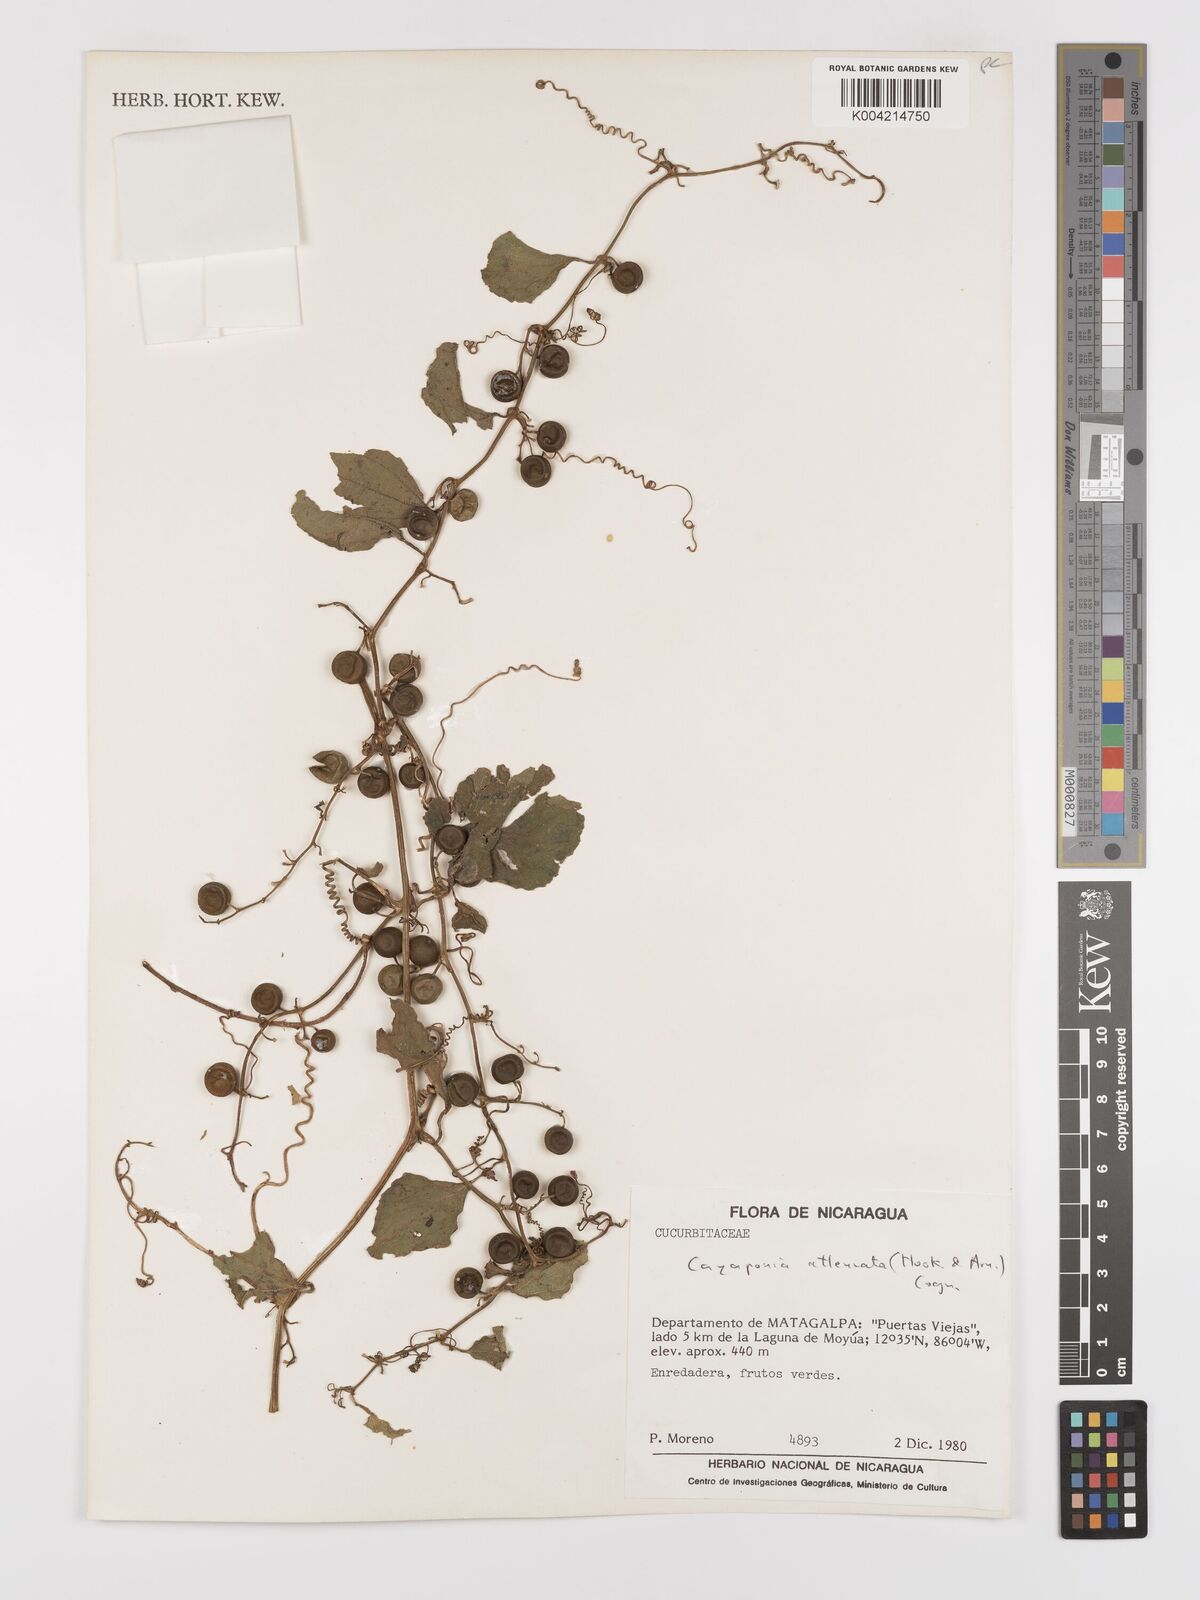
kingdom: Plantae
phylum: Tracheophyta
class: Magnoliopsida
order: Cucurbitales
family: Cucurbitaceae
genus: Cayaponia
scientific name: Cayaponia attenuata
